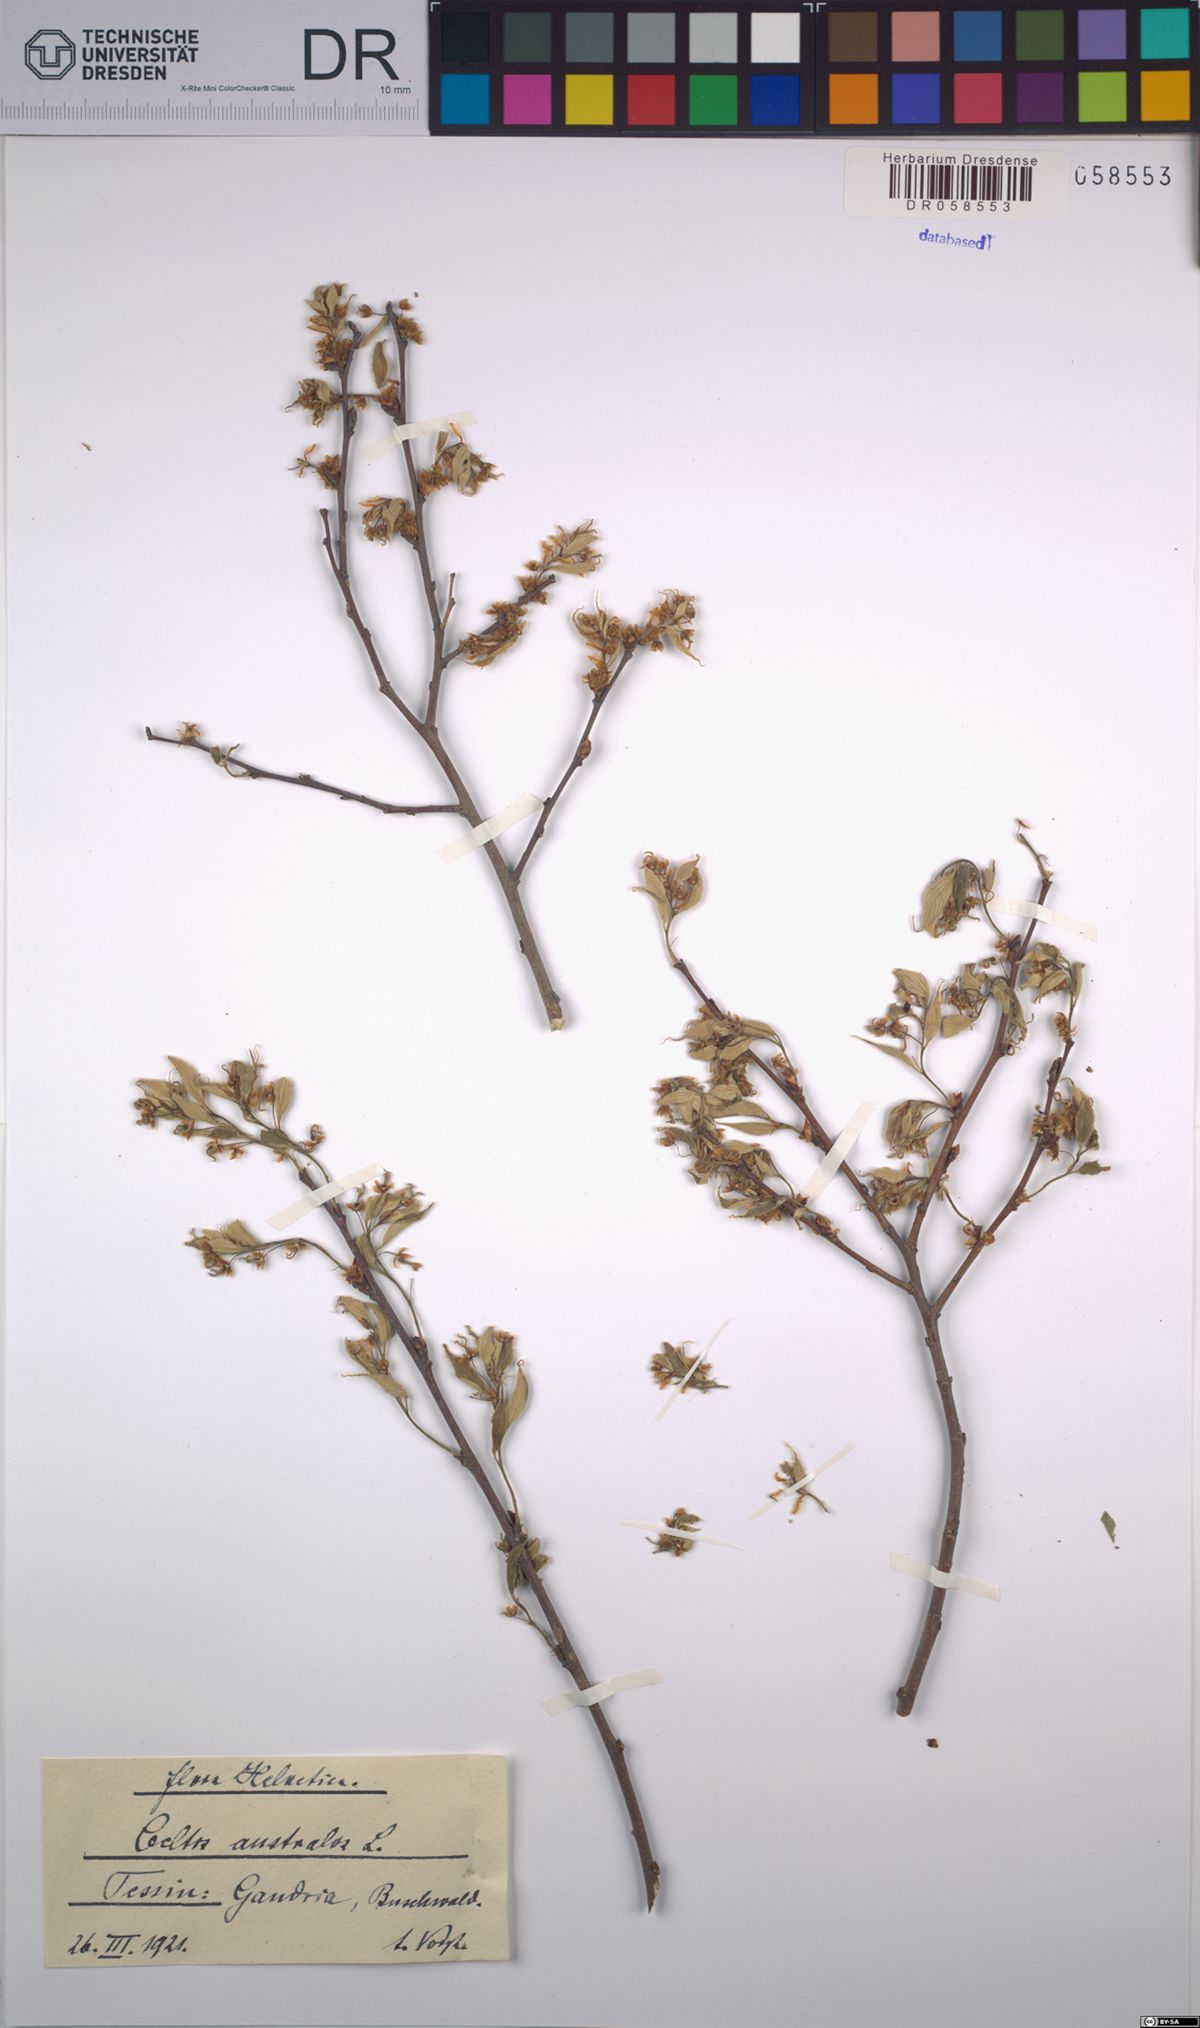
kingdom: Plantae
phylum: Tracheophyta
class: Magnoliopsida
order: Rosales
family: Cannabaceae
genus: Celtis
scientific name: Celtis australis
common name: European hackberry
